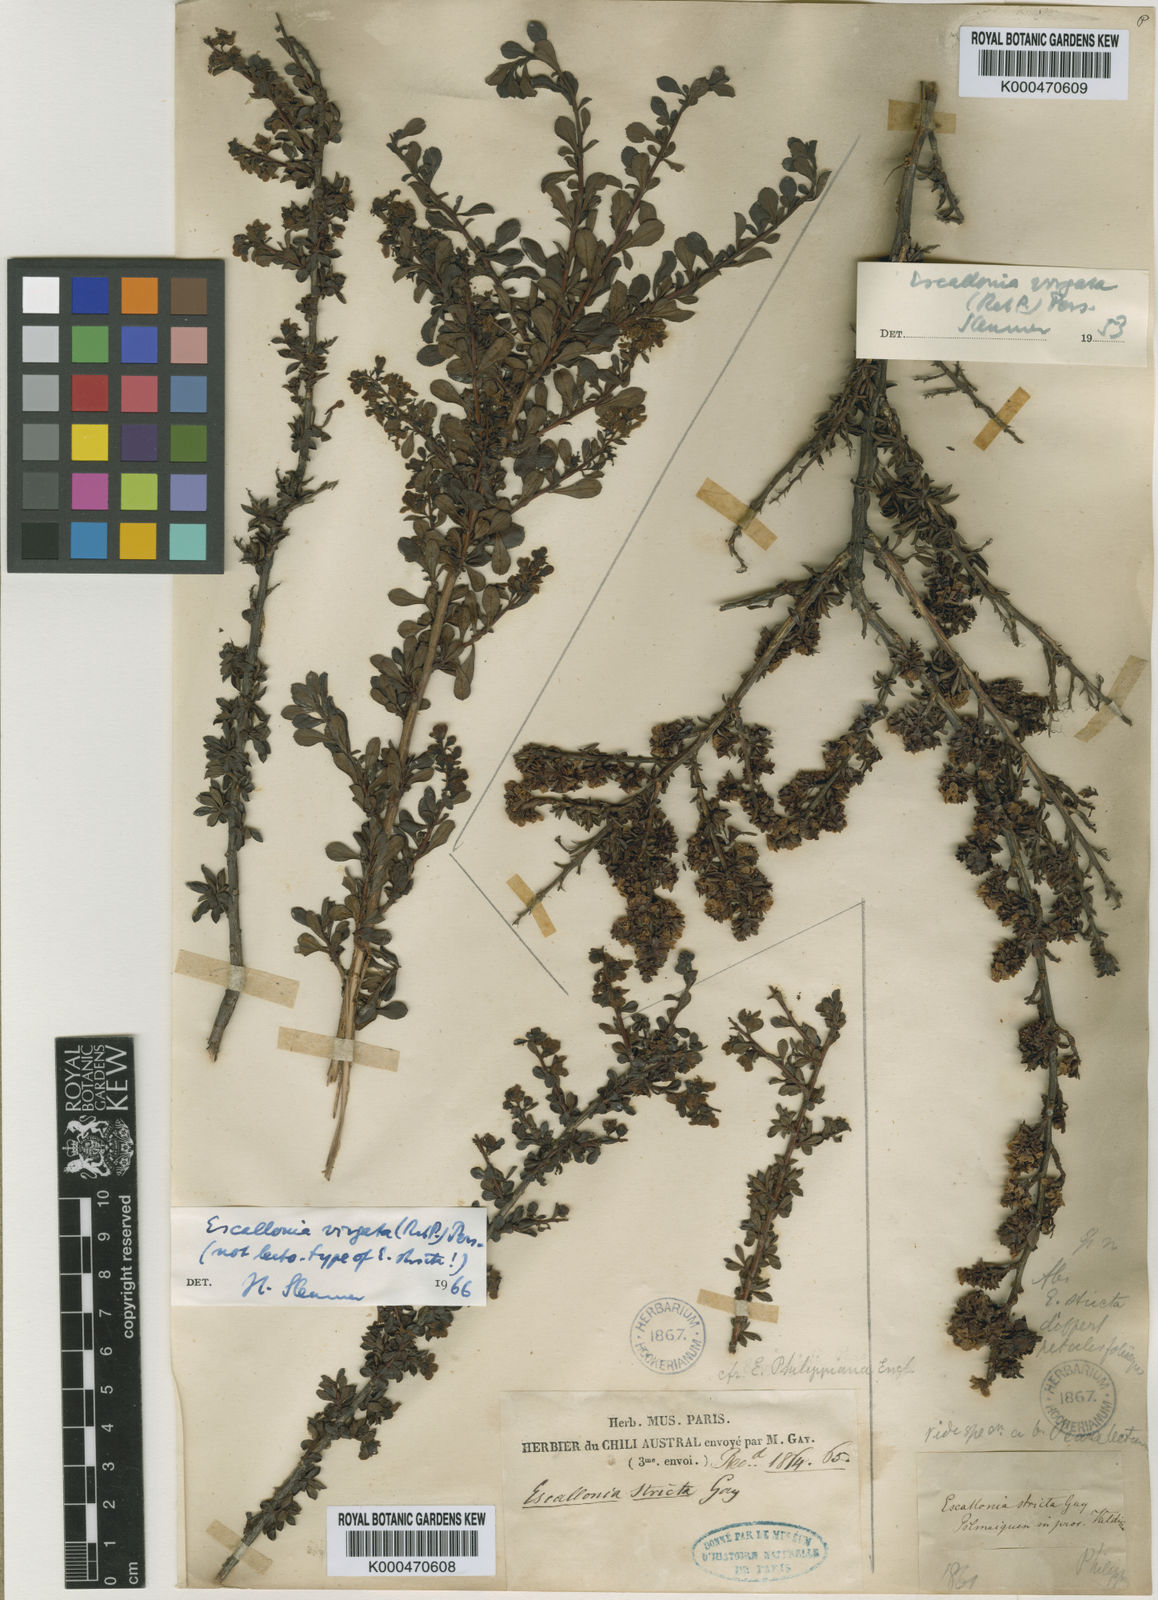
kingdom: Plantae
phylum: Tracheophyta
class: Magnoliopsida
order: Escalloniales
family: Escalloniaceae
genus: Escallonia
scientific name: Escallonia virgata
